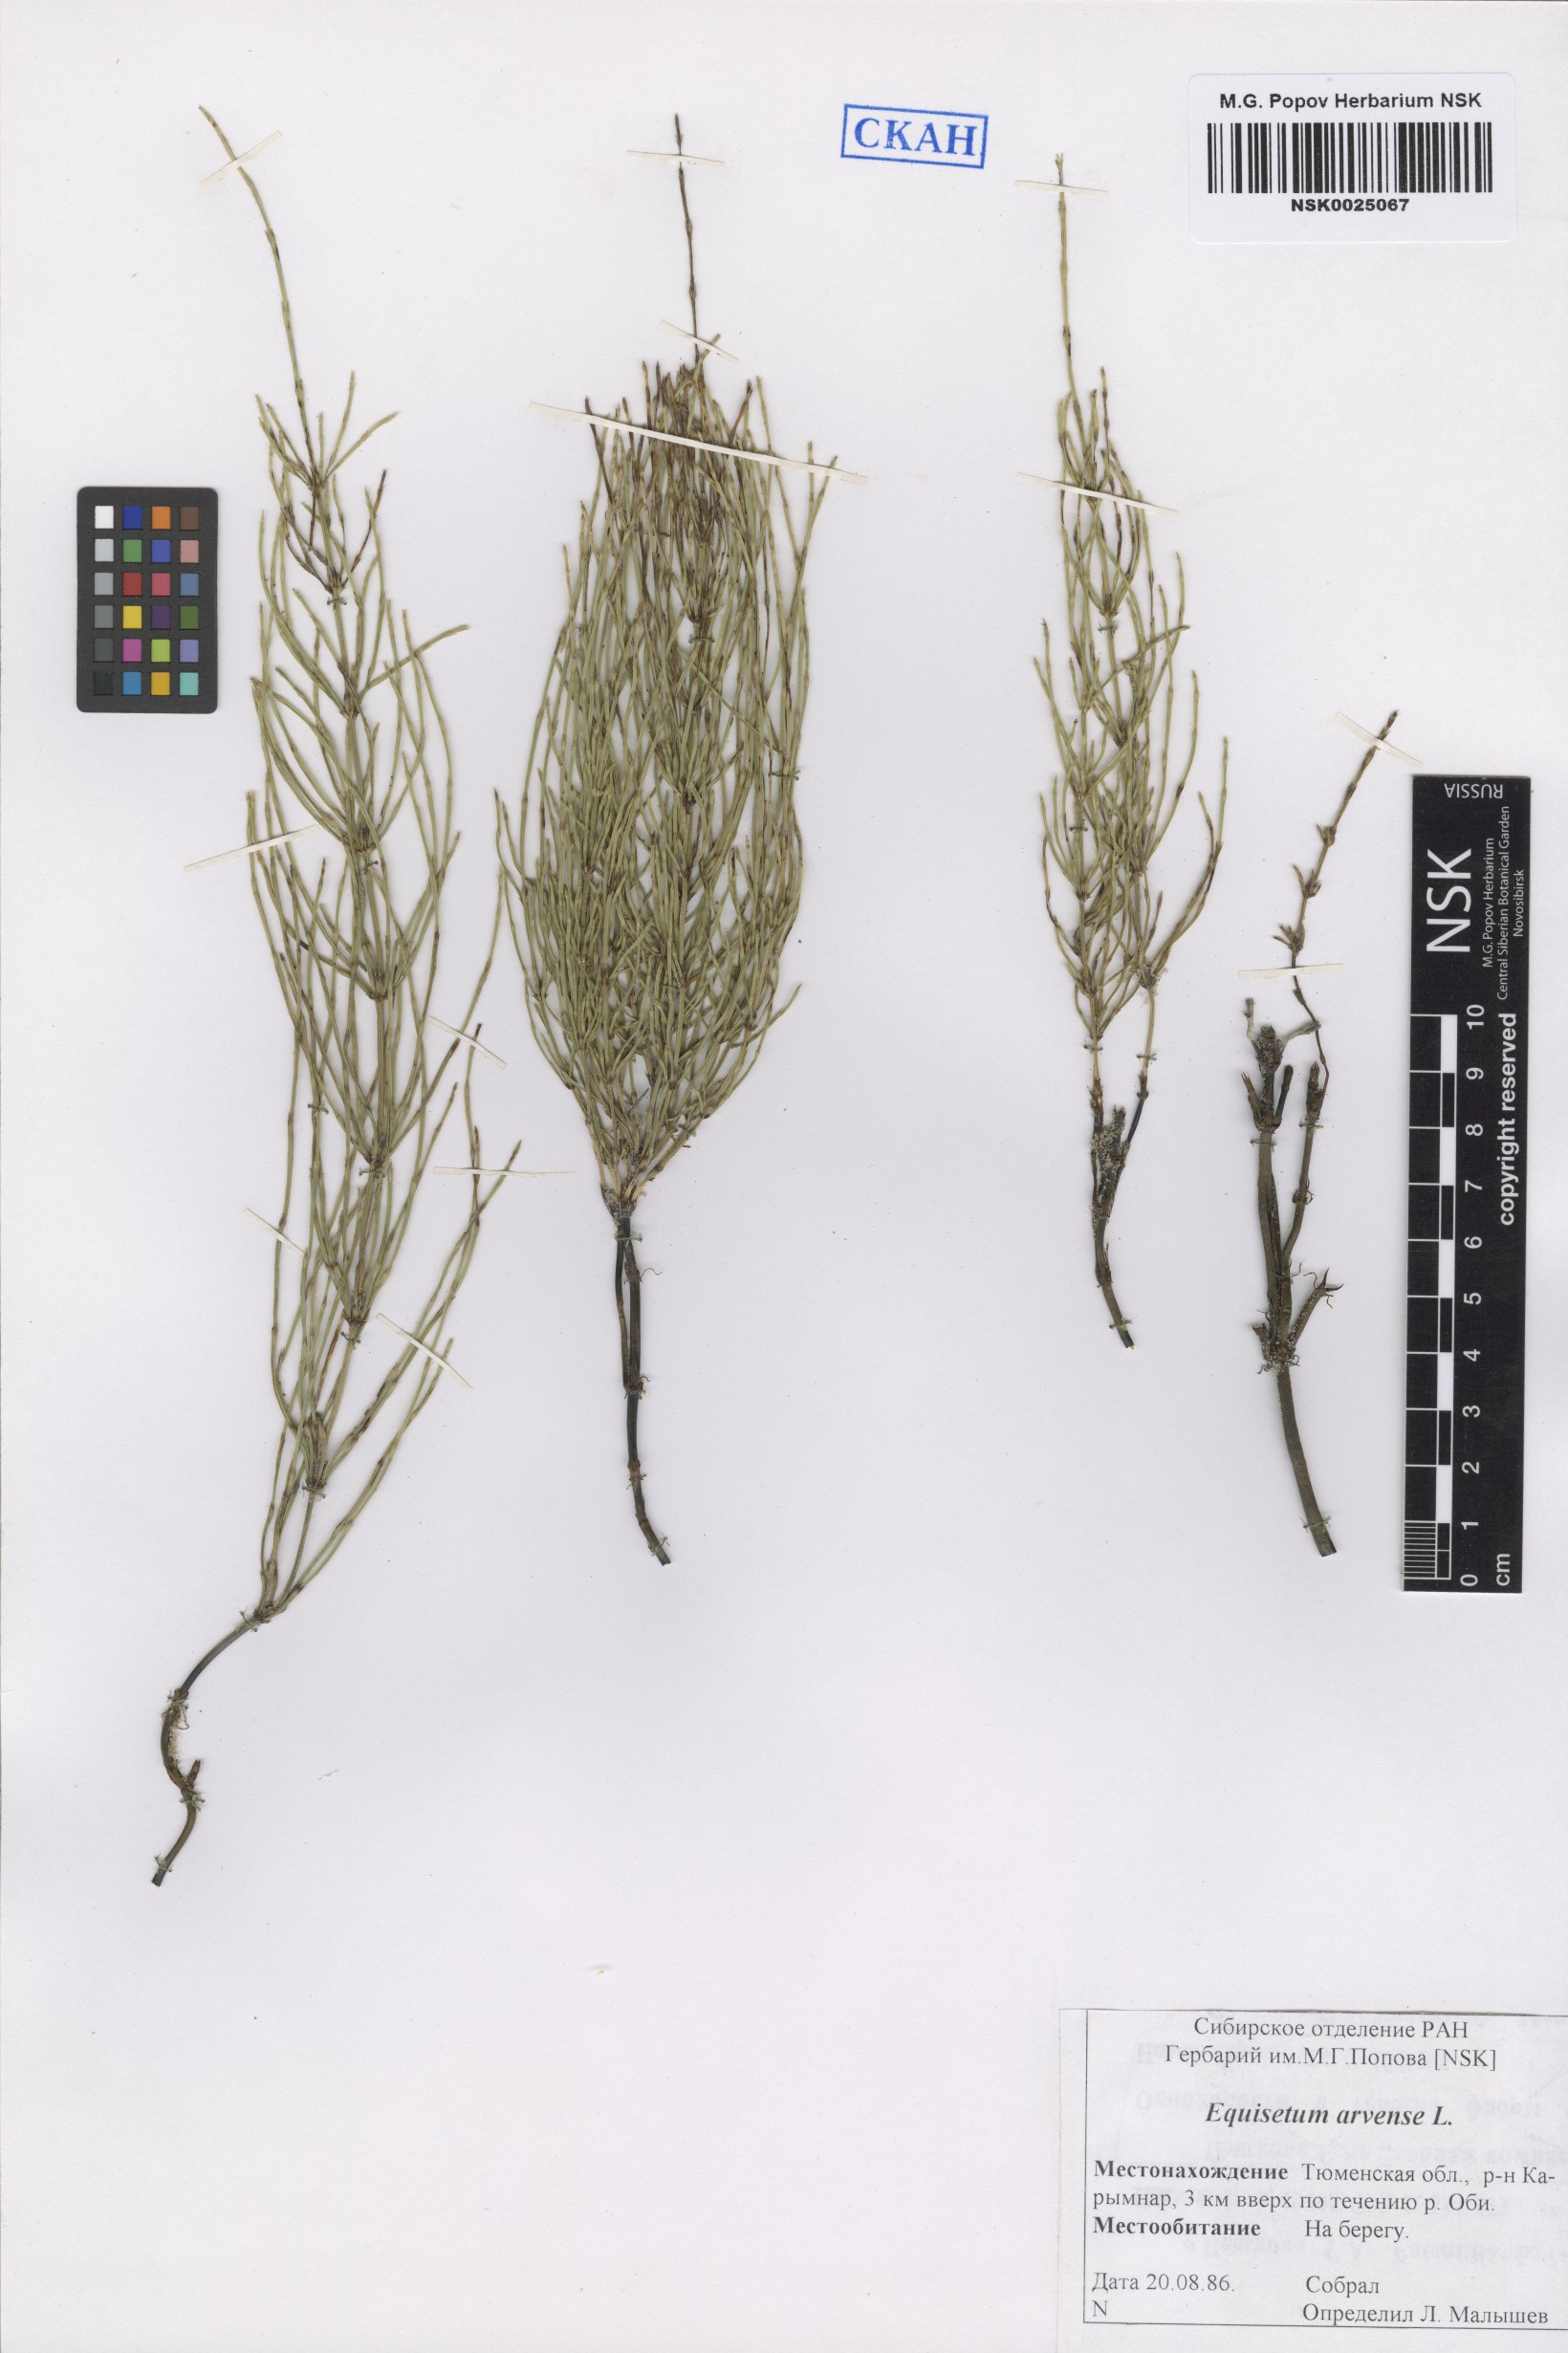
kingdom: Plantae
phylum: Tracheophyta
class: Polypodiopsida
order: Equisetales
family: Equisetaceae
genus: Equisetum
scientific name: Equisetum arvense
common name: Field horsetail
